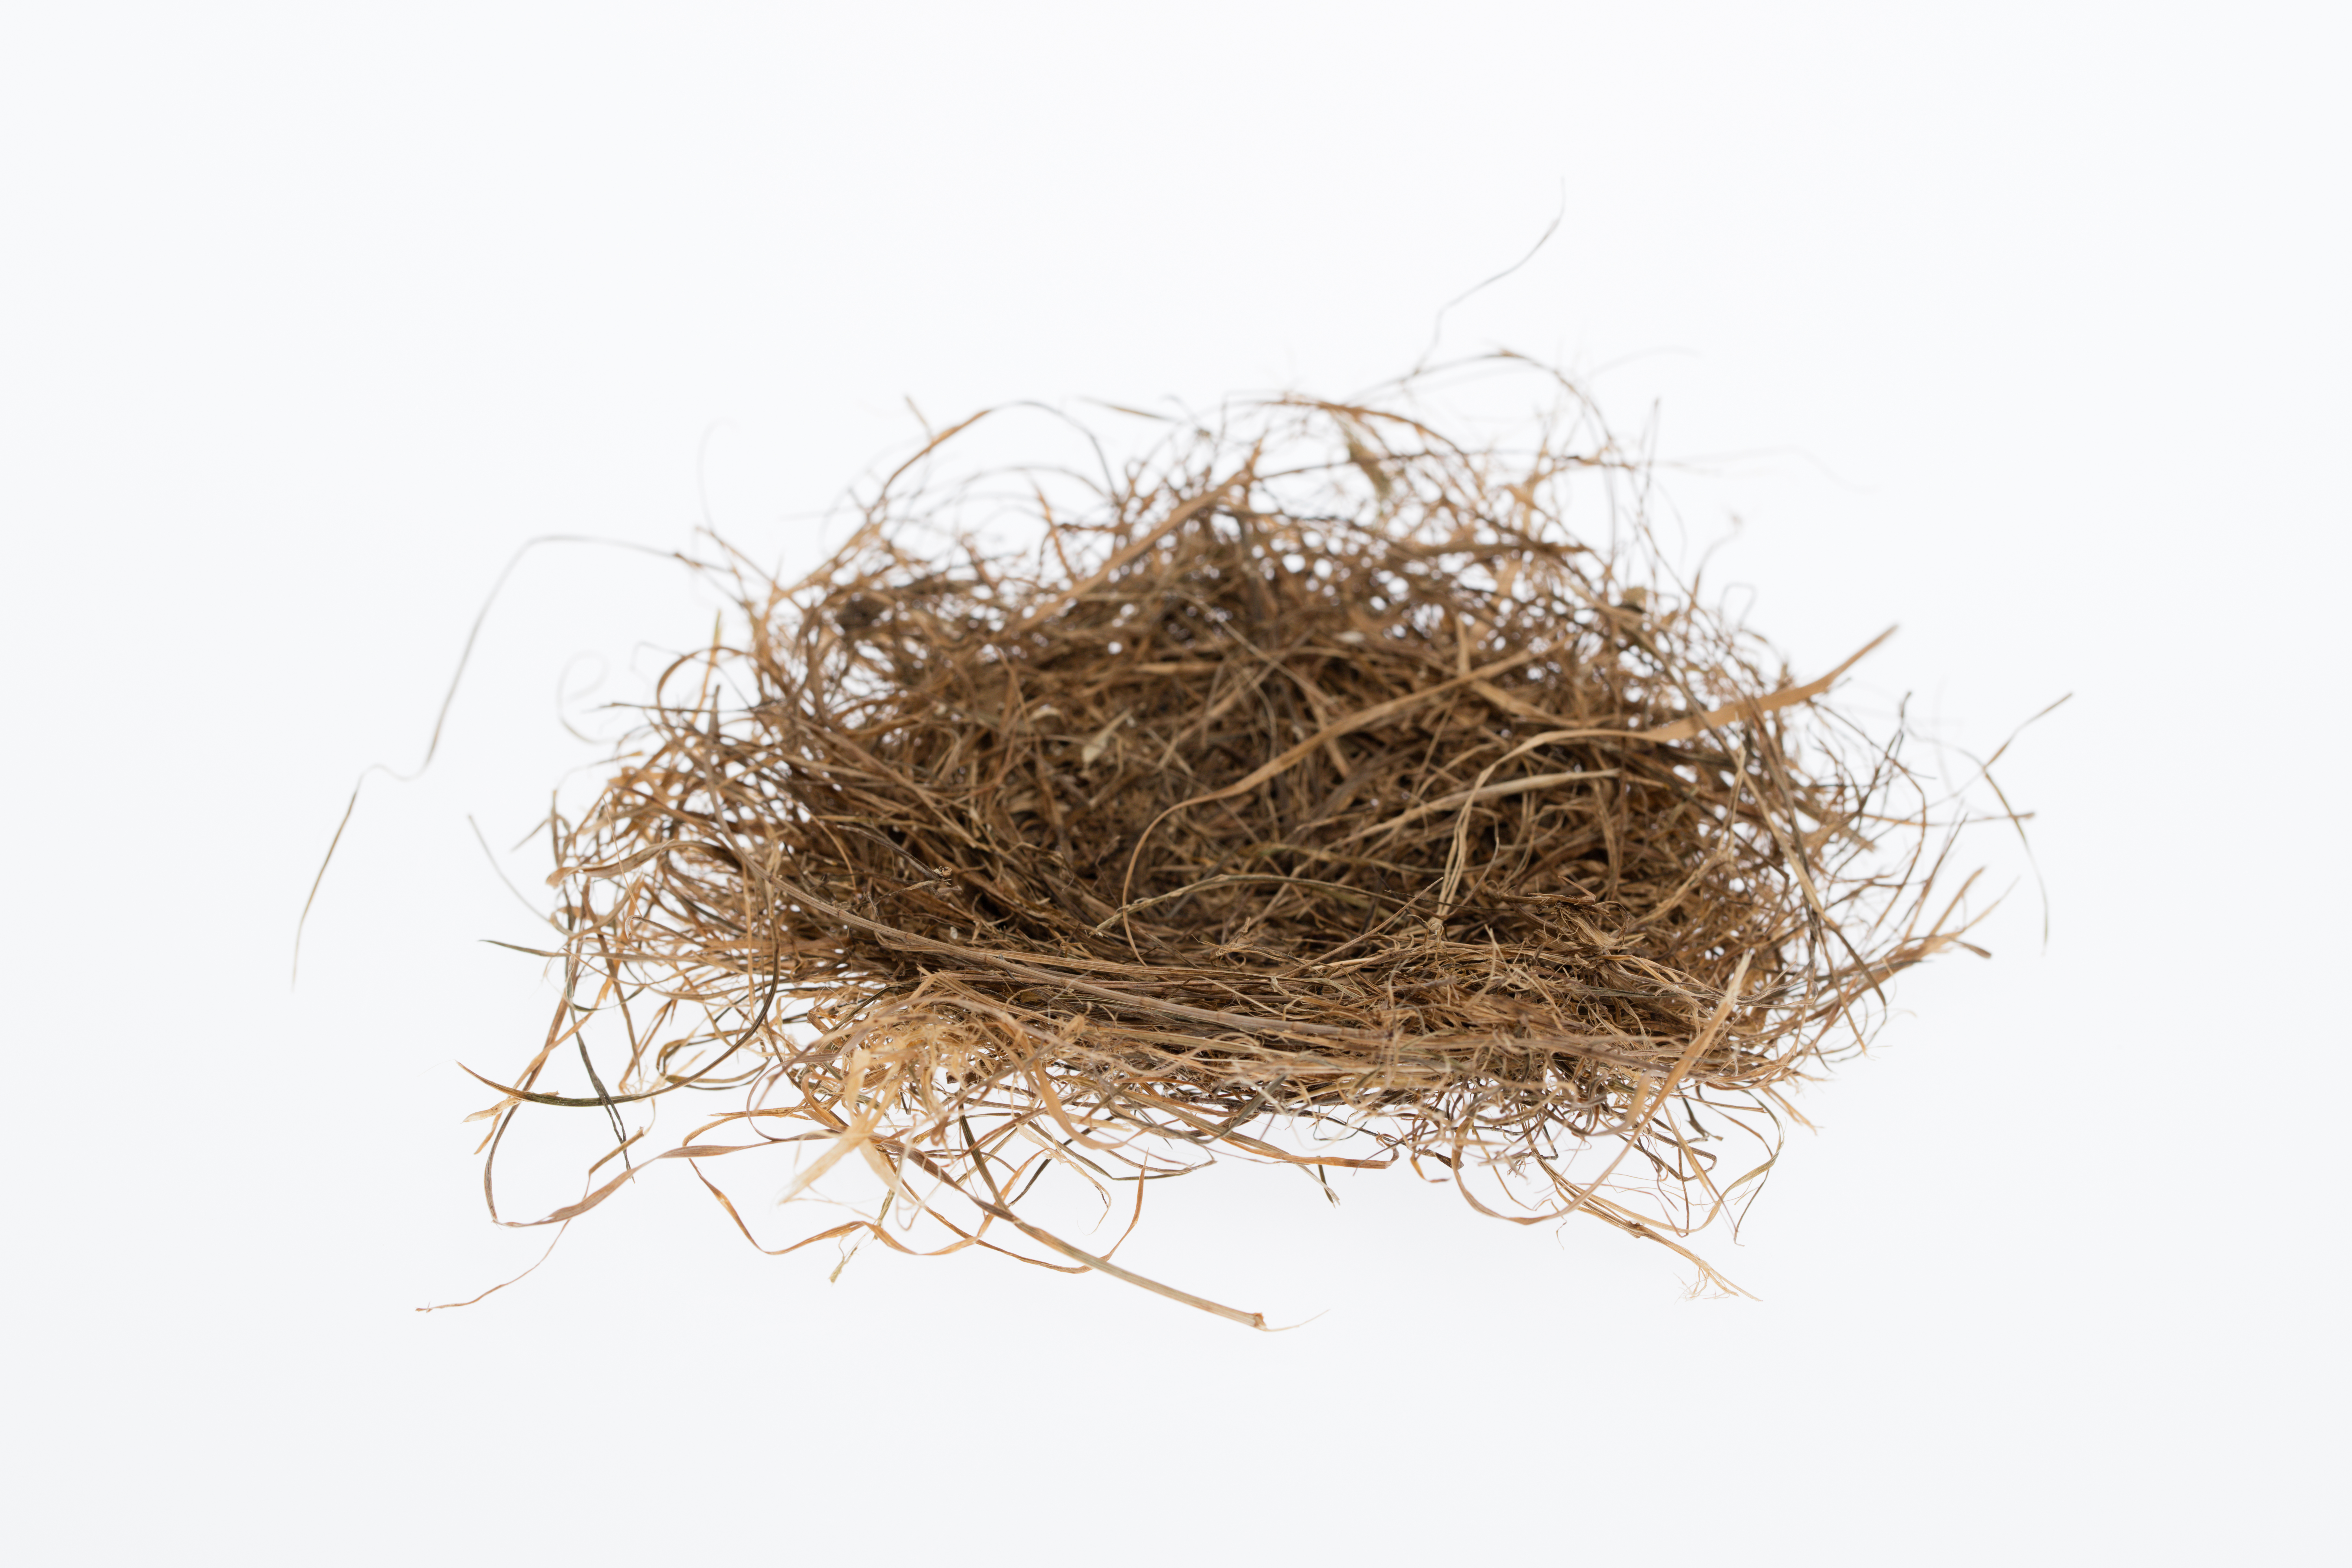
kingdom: Animalia
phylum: Chordata
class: Aves
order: Charadriiformes
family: Charadriidae
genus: Vanellus
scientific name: Vanellus miles
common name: Masked lapwing
